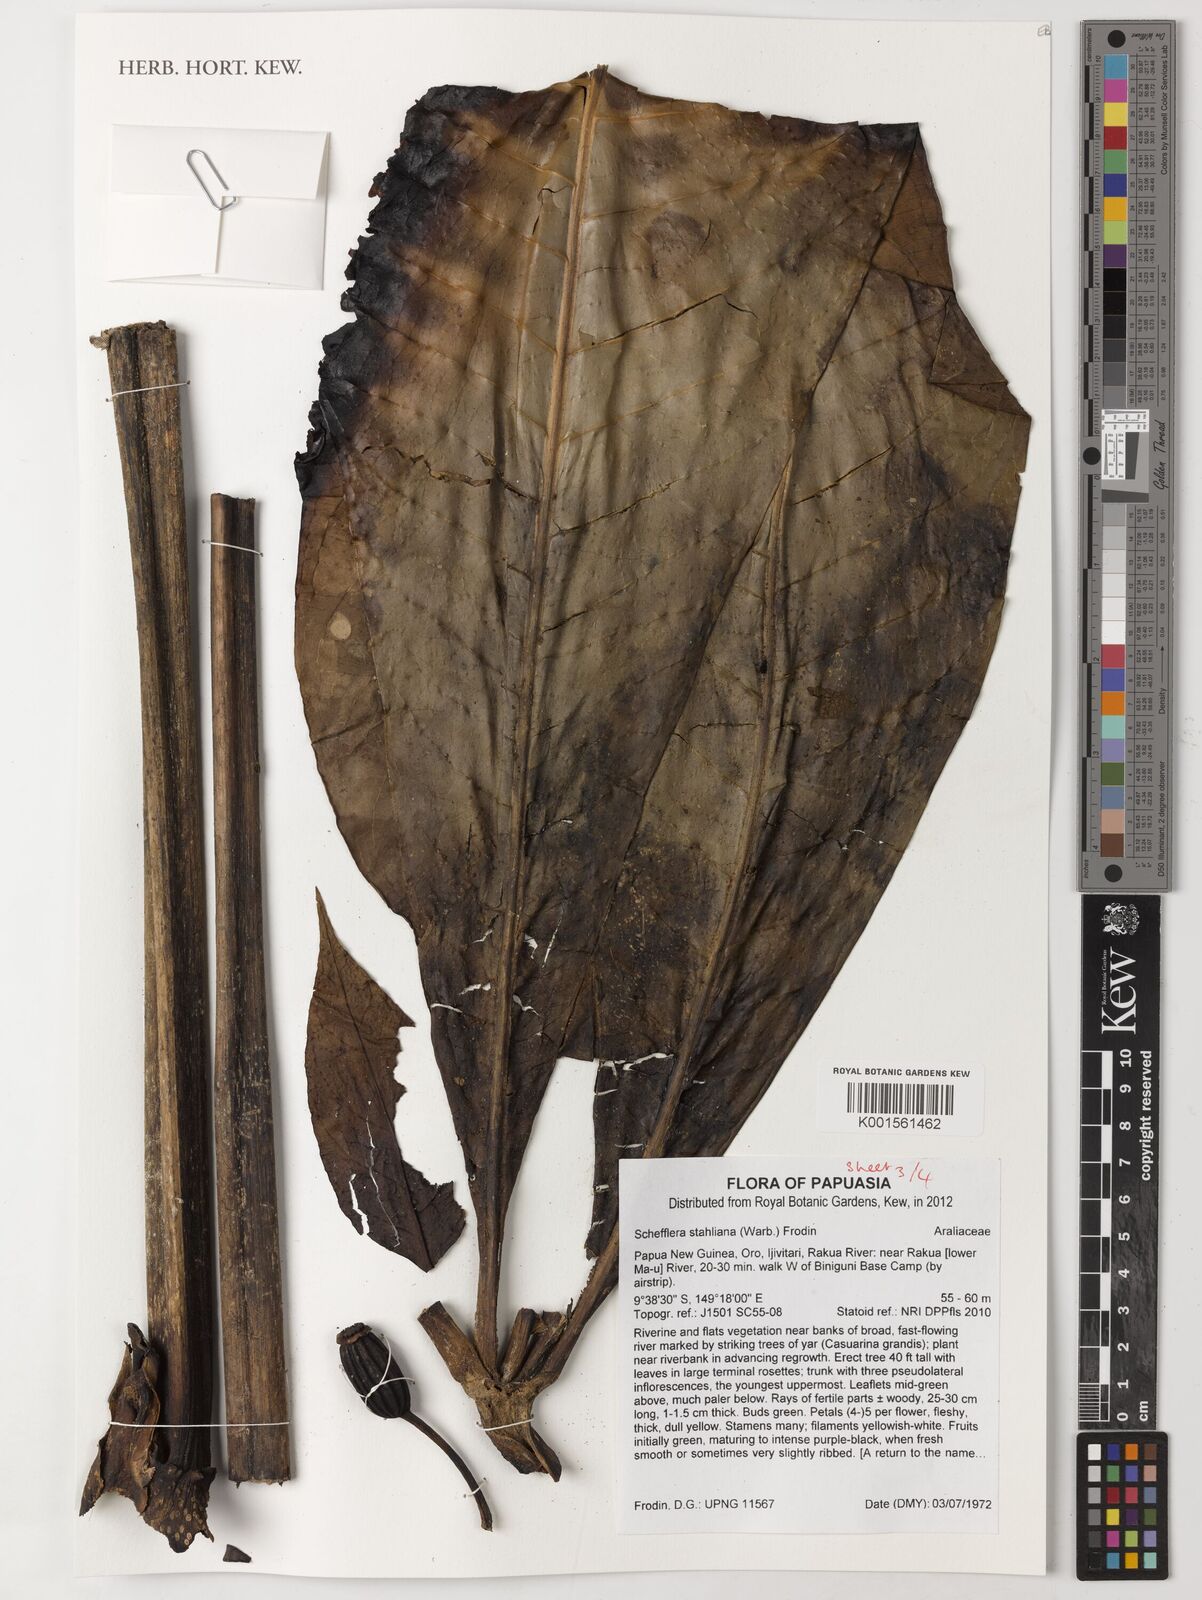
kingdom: Plantae
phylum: Tracheophyta
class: Magnoliopsida
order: Apiales
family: Araliaceae
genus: Plerandra
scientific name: Plerandra stahliana
